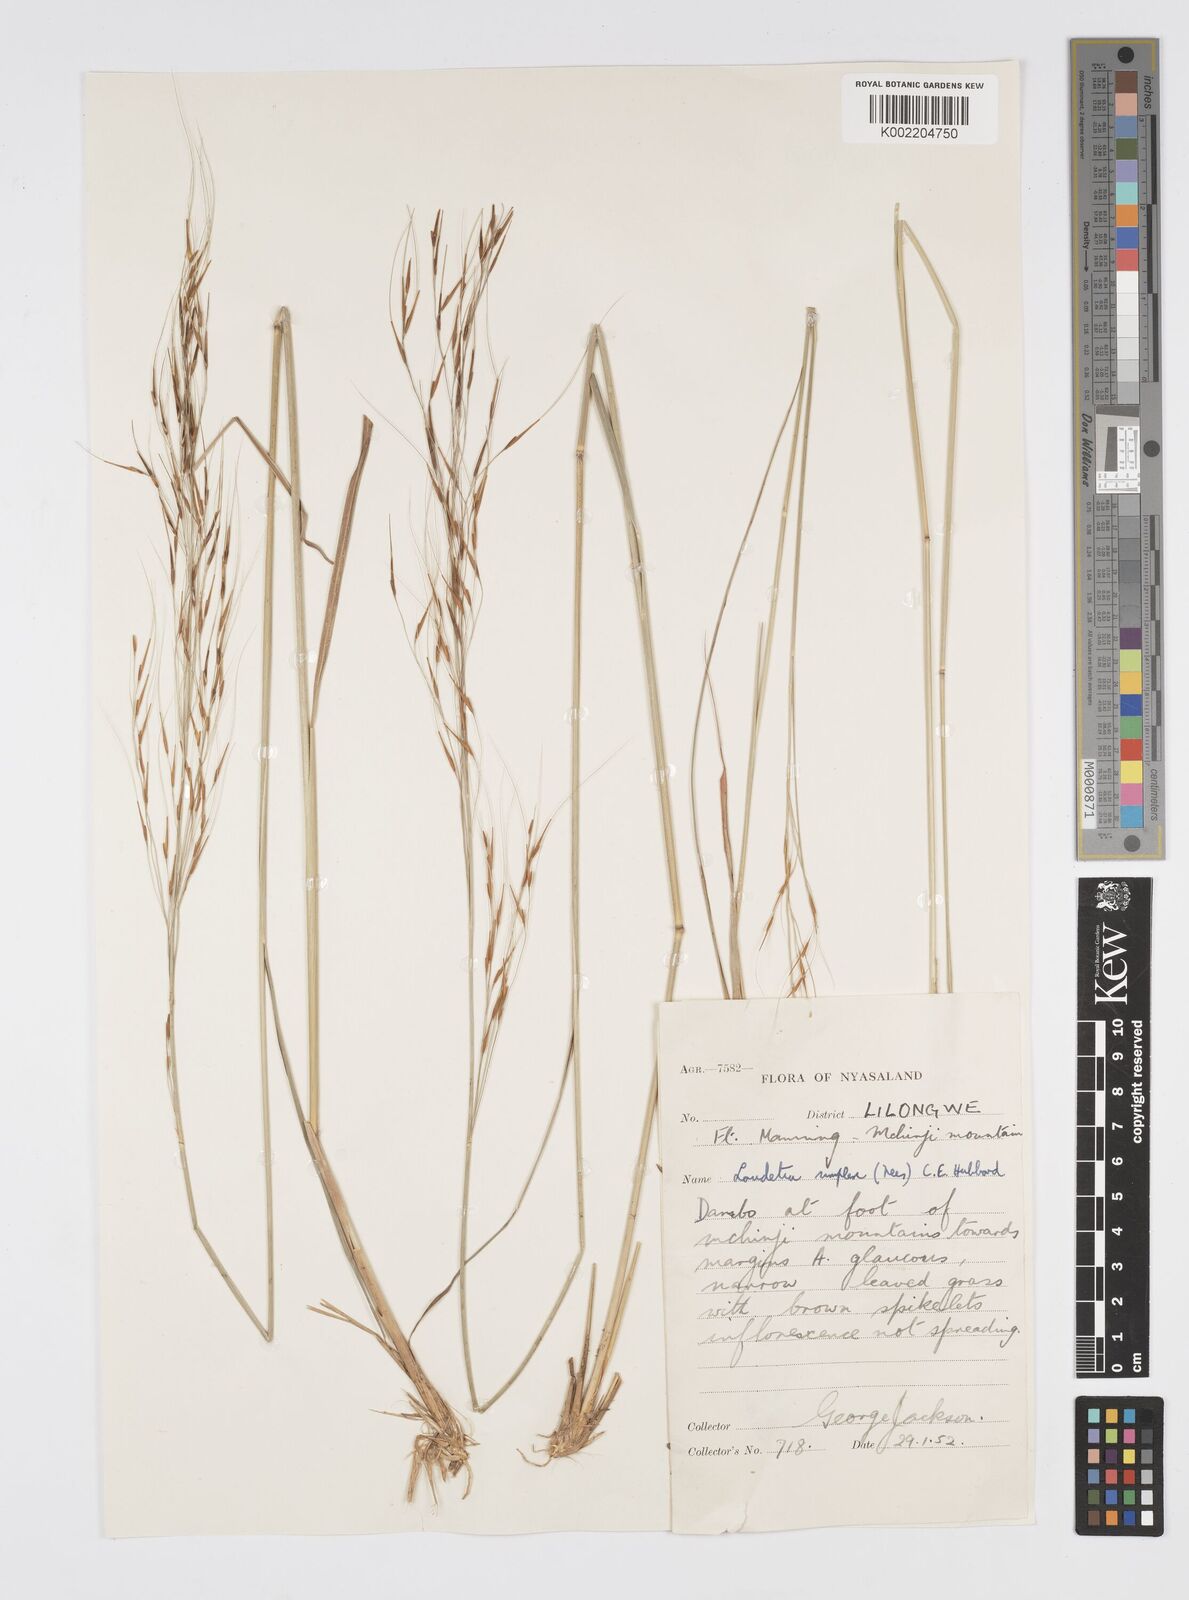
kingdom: Plantae
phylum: Tracheophyta
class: Liliopsida
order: Poales
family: Poaceae
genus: Loudetia
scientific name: Loudetia simplex
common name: Common russet grass
